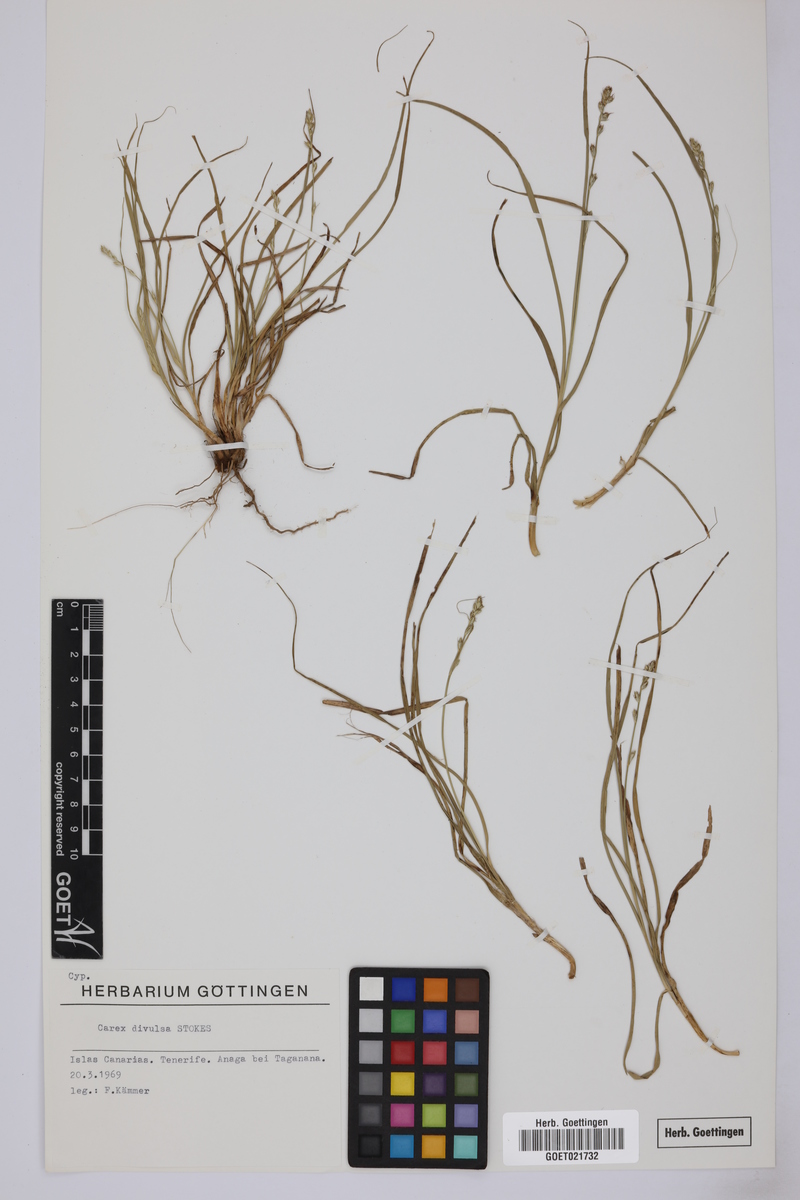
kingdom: Plantae
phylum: Tracheophyta
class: Liliopsida
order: Poales
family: Cyperaceae
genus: Carex
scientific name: Carex divulsa
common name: Grassland sedge
